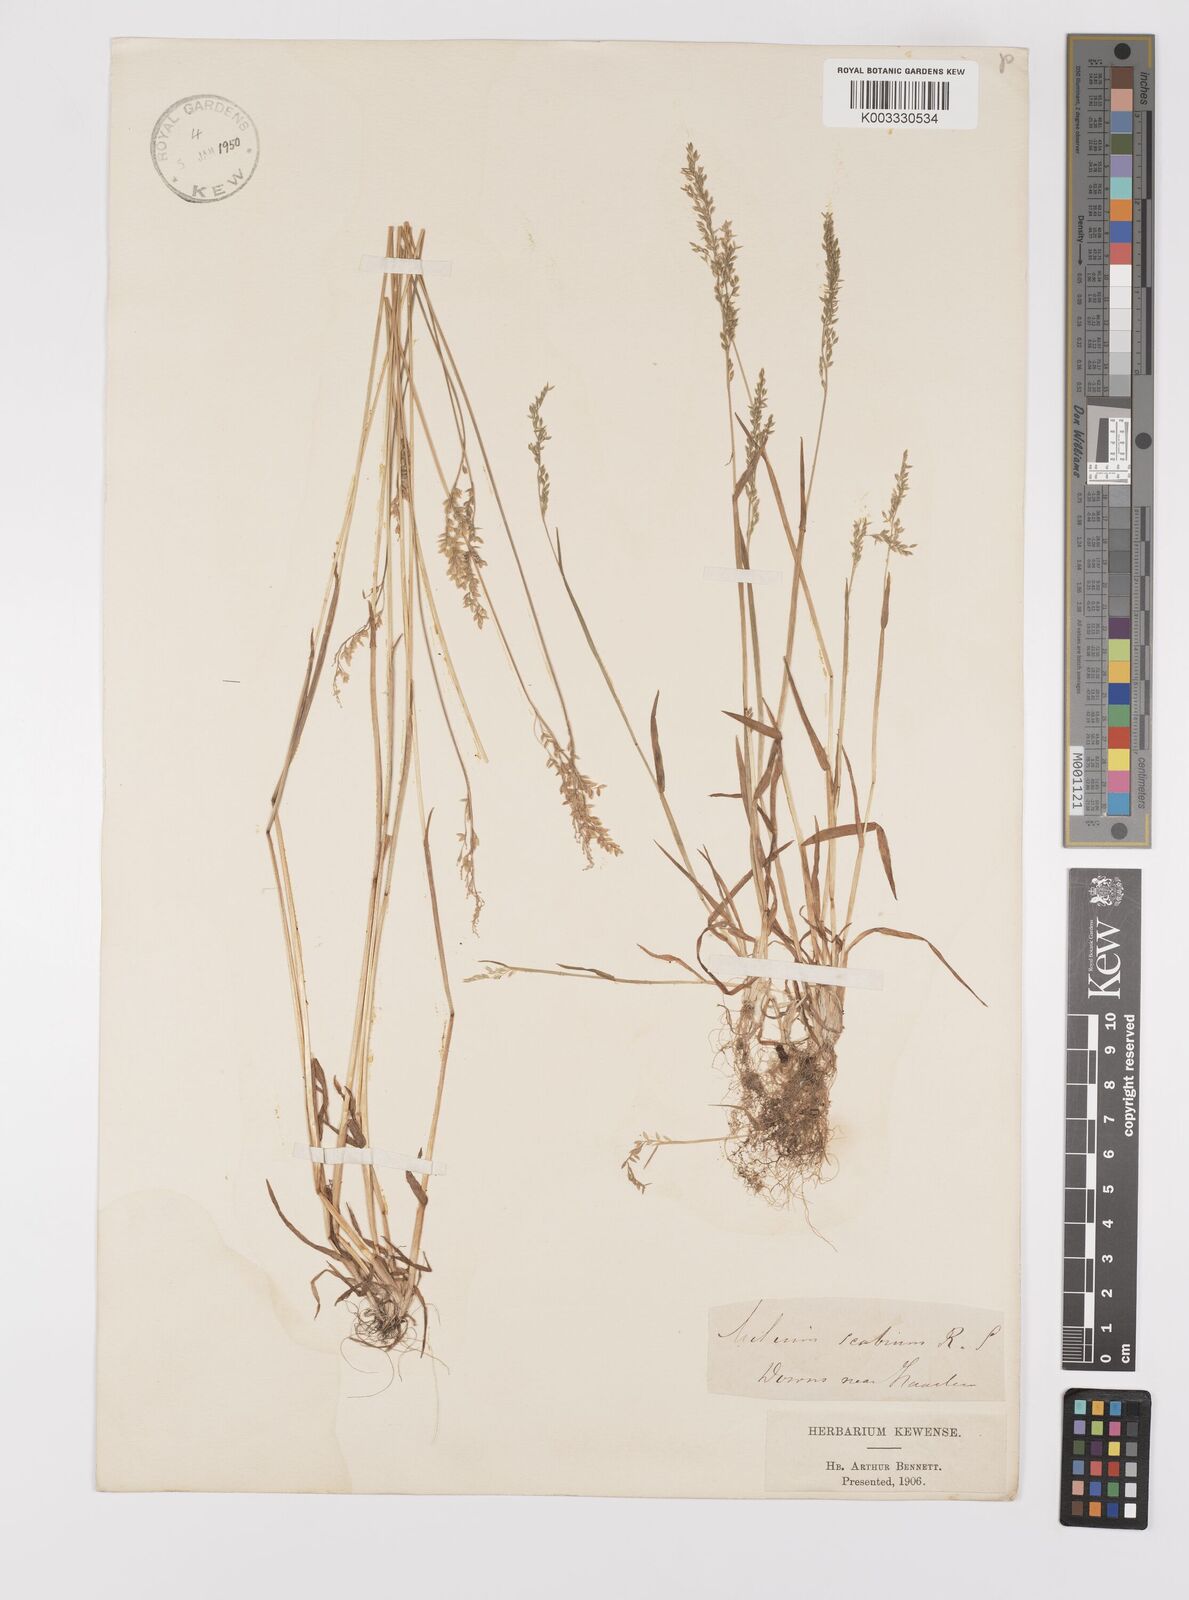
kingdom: Plantae
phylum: Tracheophyta
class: Liliopsida
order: Poales
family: Poaceae
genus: Milium
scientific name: Milium vernale
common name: Early millet
